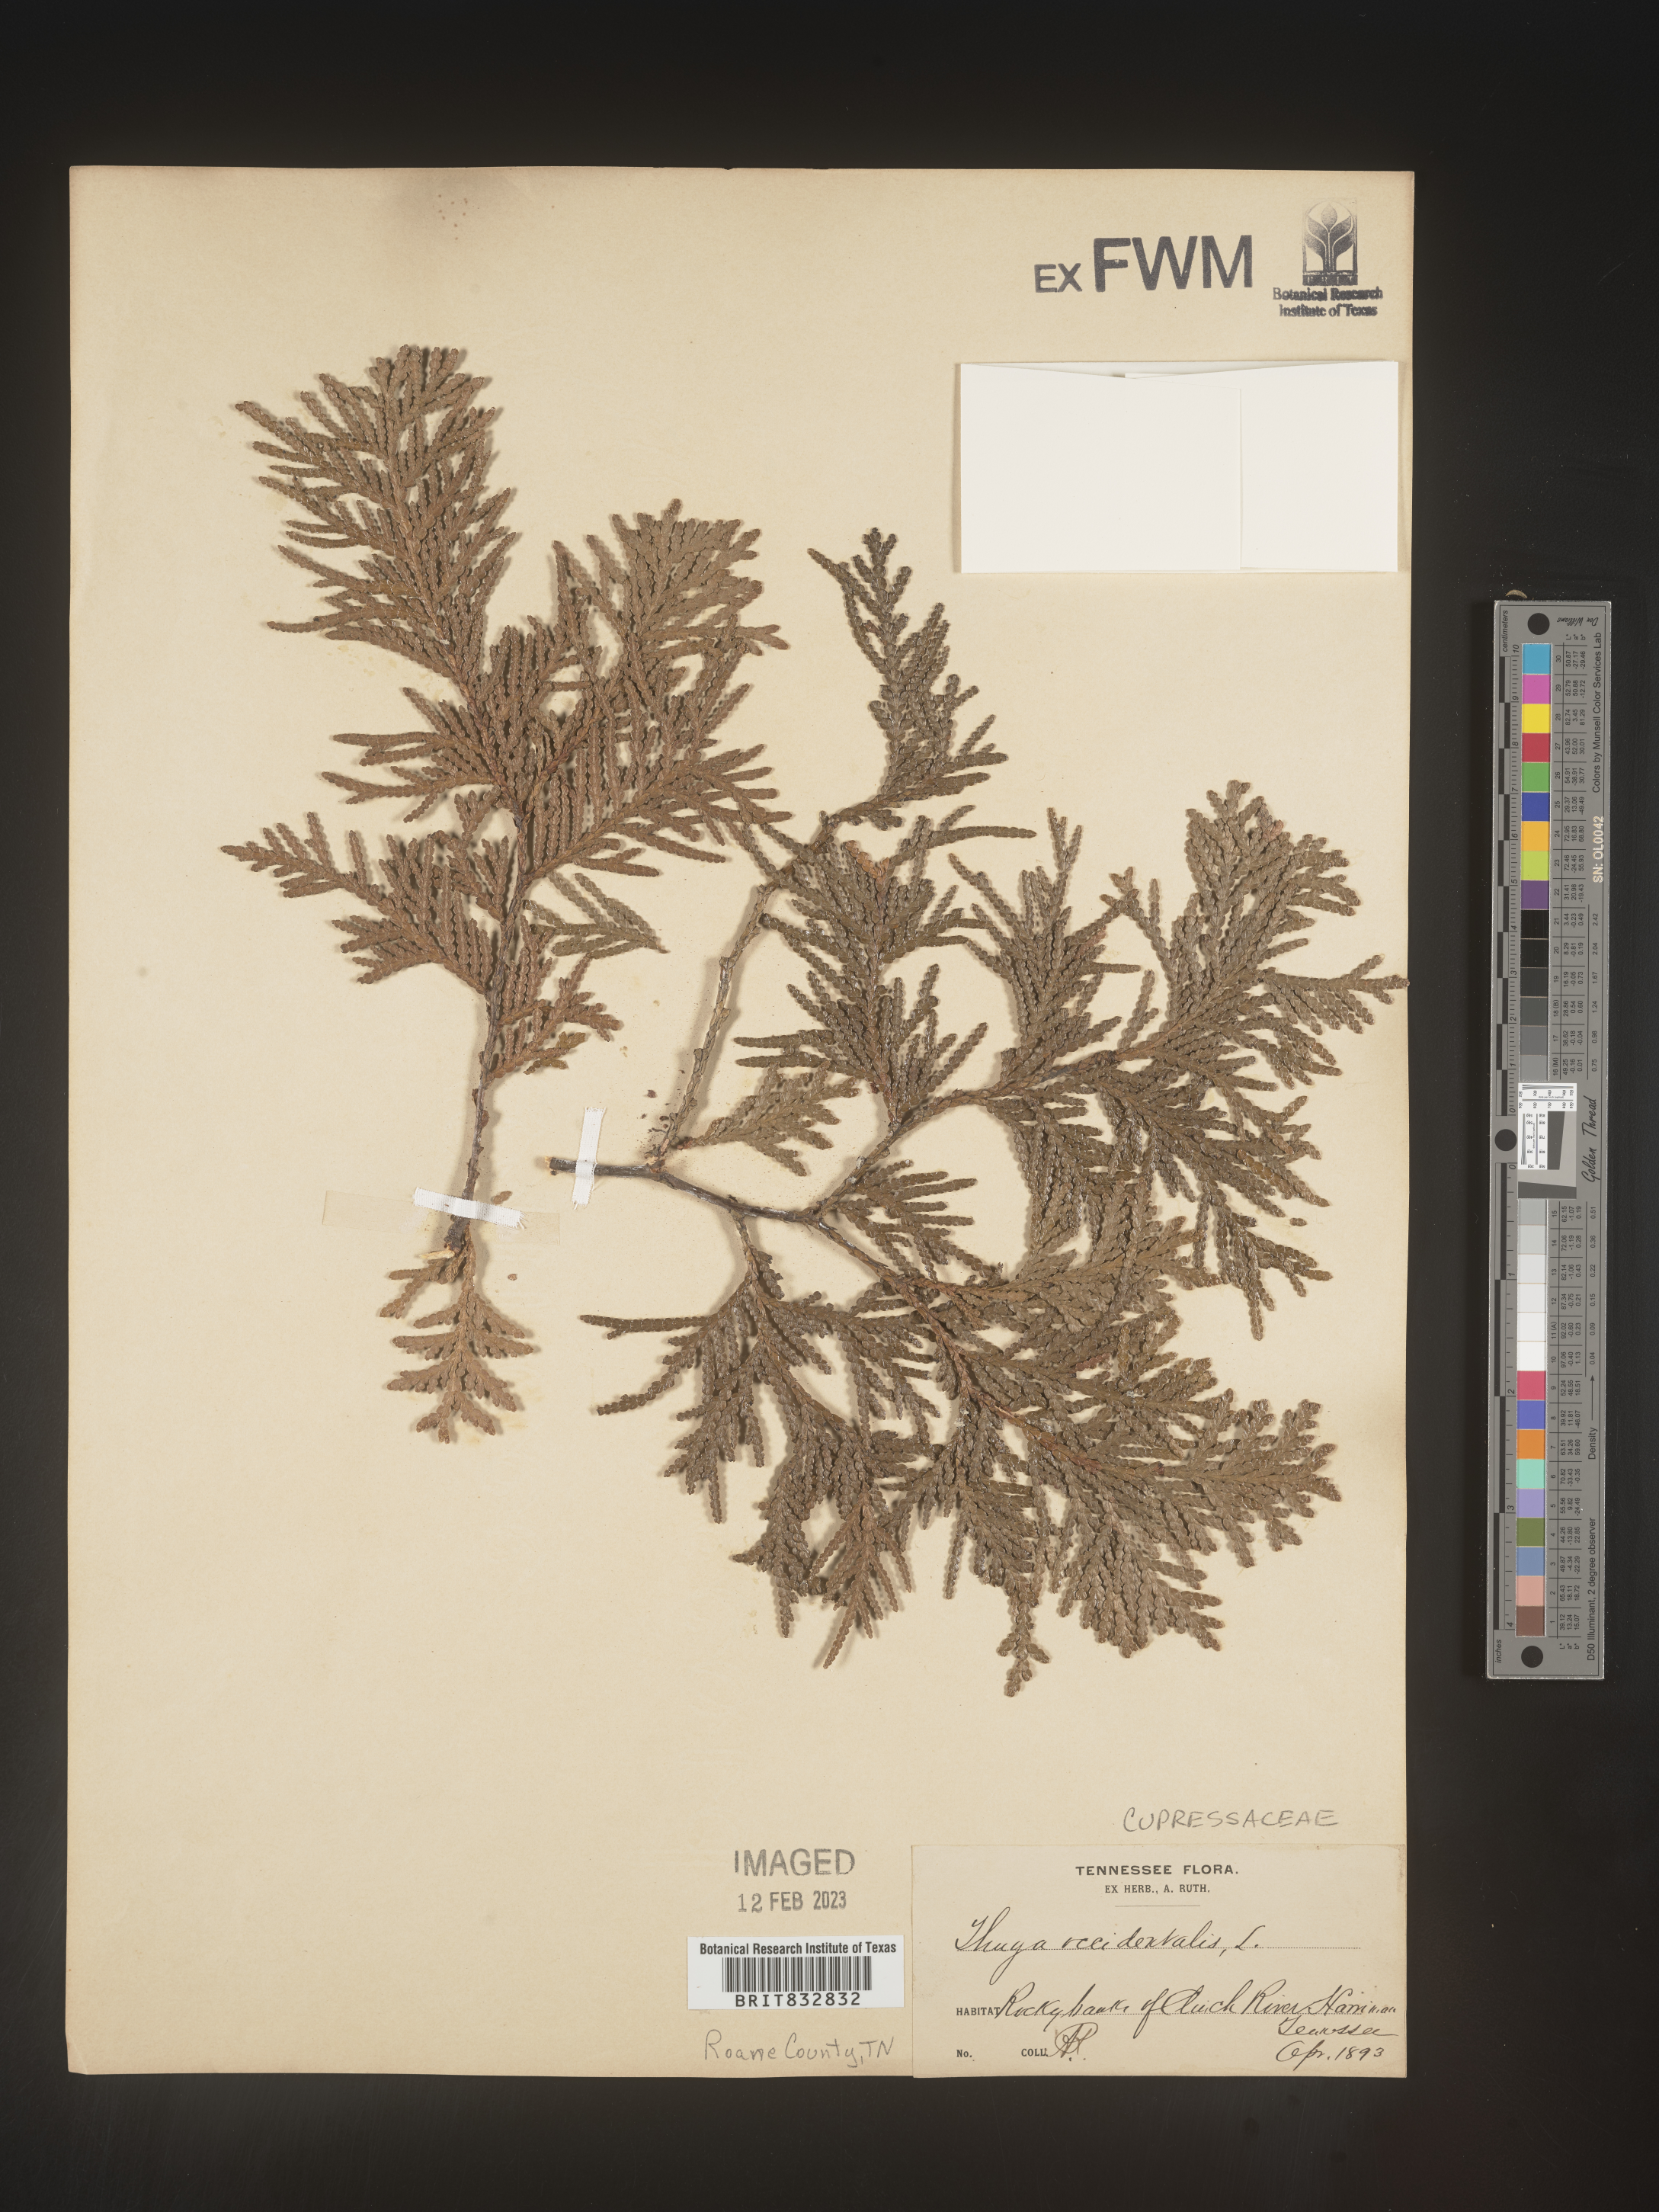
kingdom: Plantae
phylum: Tracheophyta
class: Pinopsida
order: Pinales
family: Cupressaceae
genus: Thuja
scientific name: Thuja occidentalis
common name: Northern white-cedar
